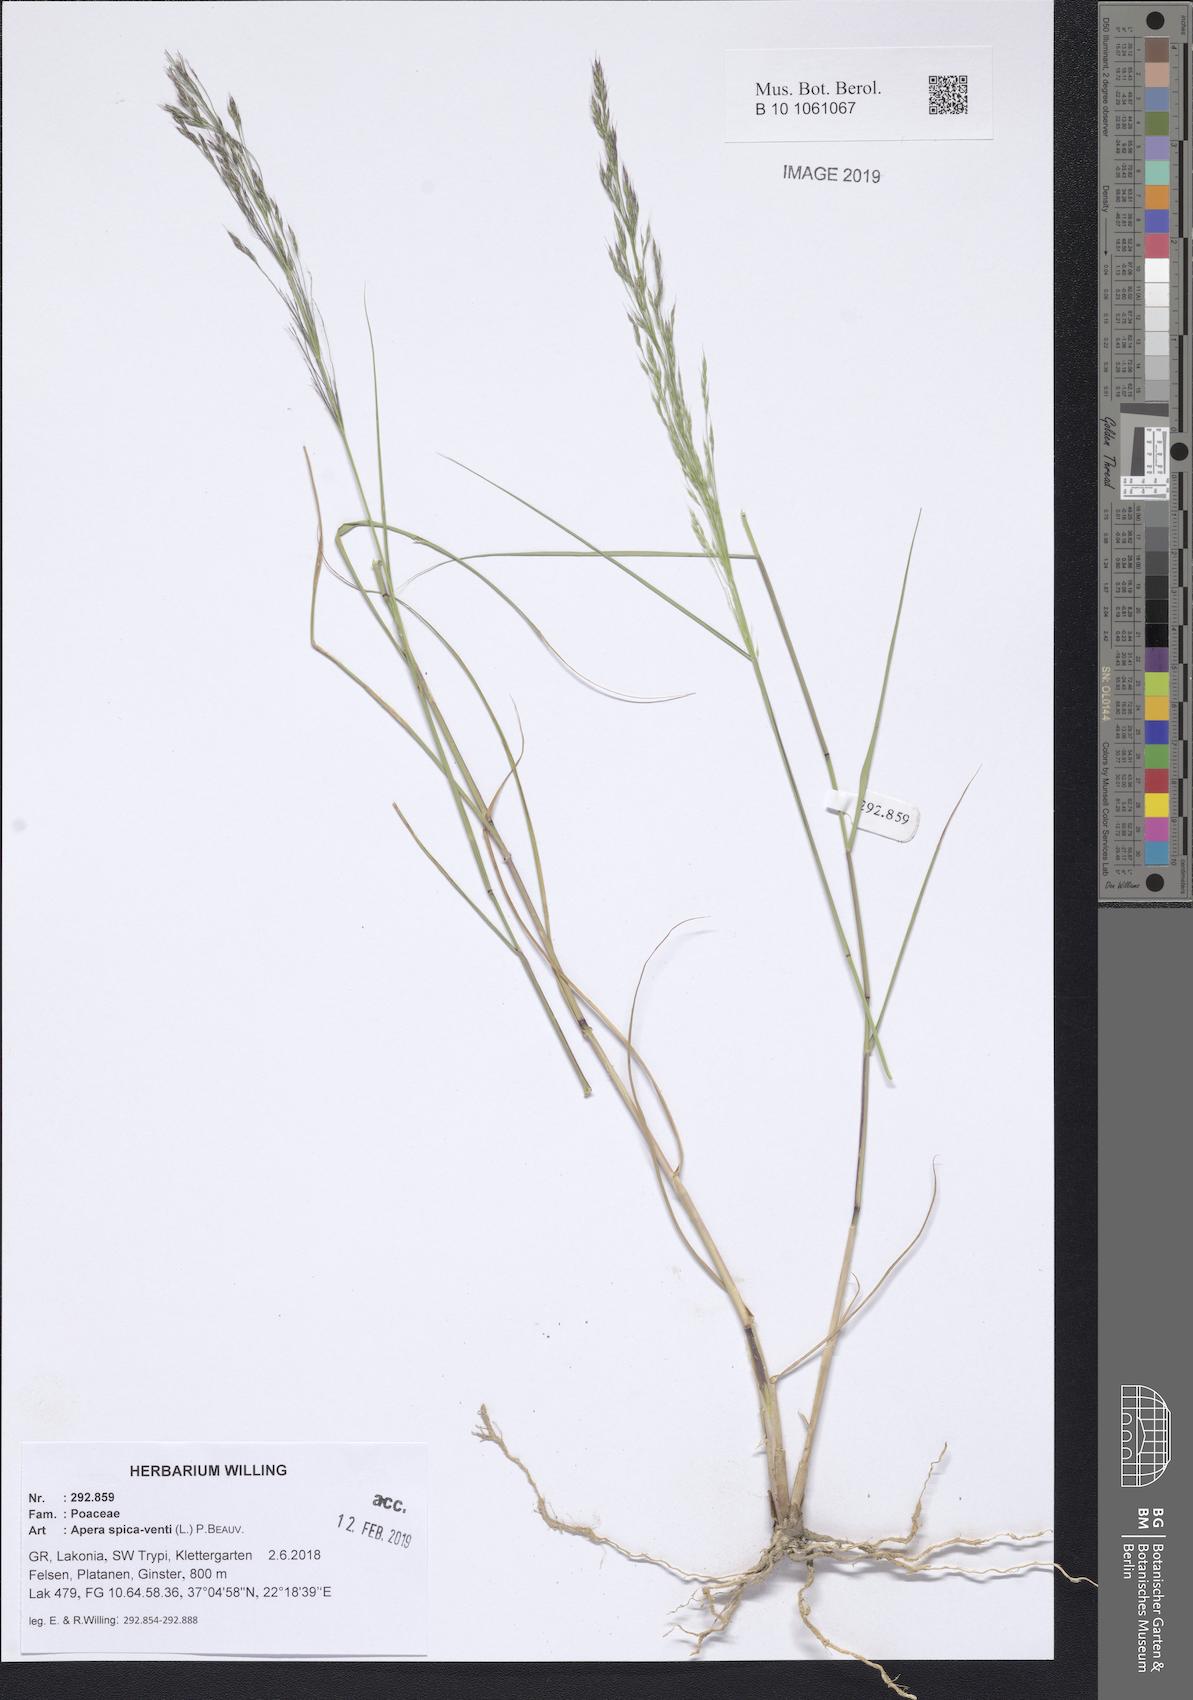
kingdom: Plantae
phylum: Tracheophyta
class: Liliopsida
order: Poales
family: Poaceae
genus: Apera
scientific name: Apera spica-venti
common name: Loose silky-bent
